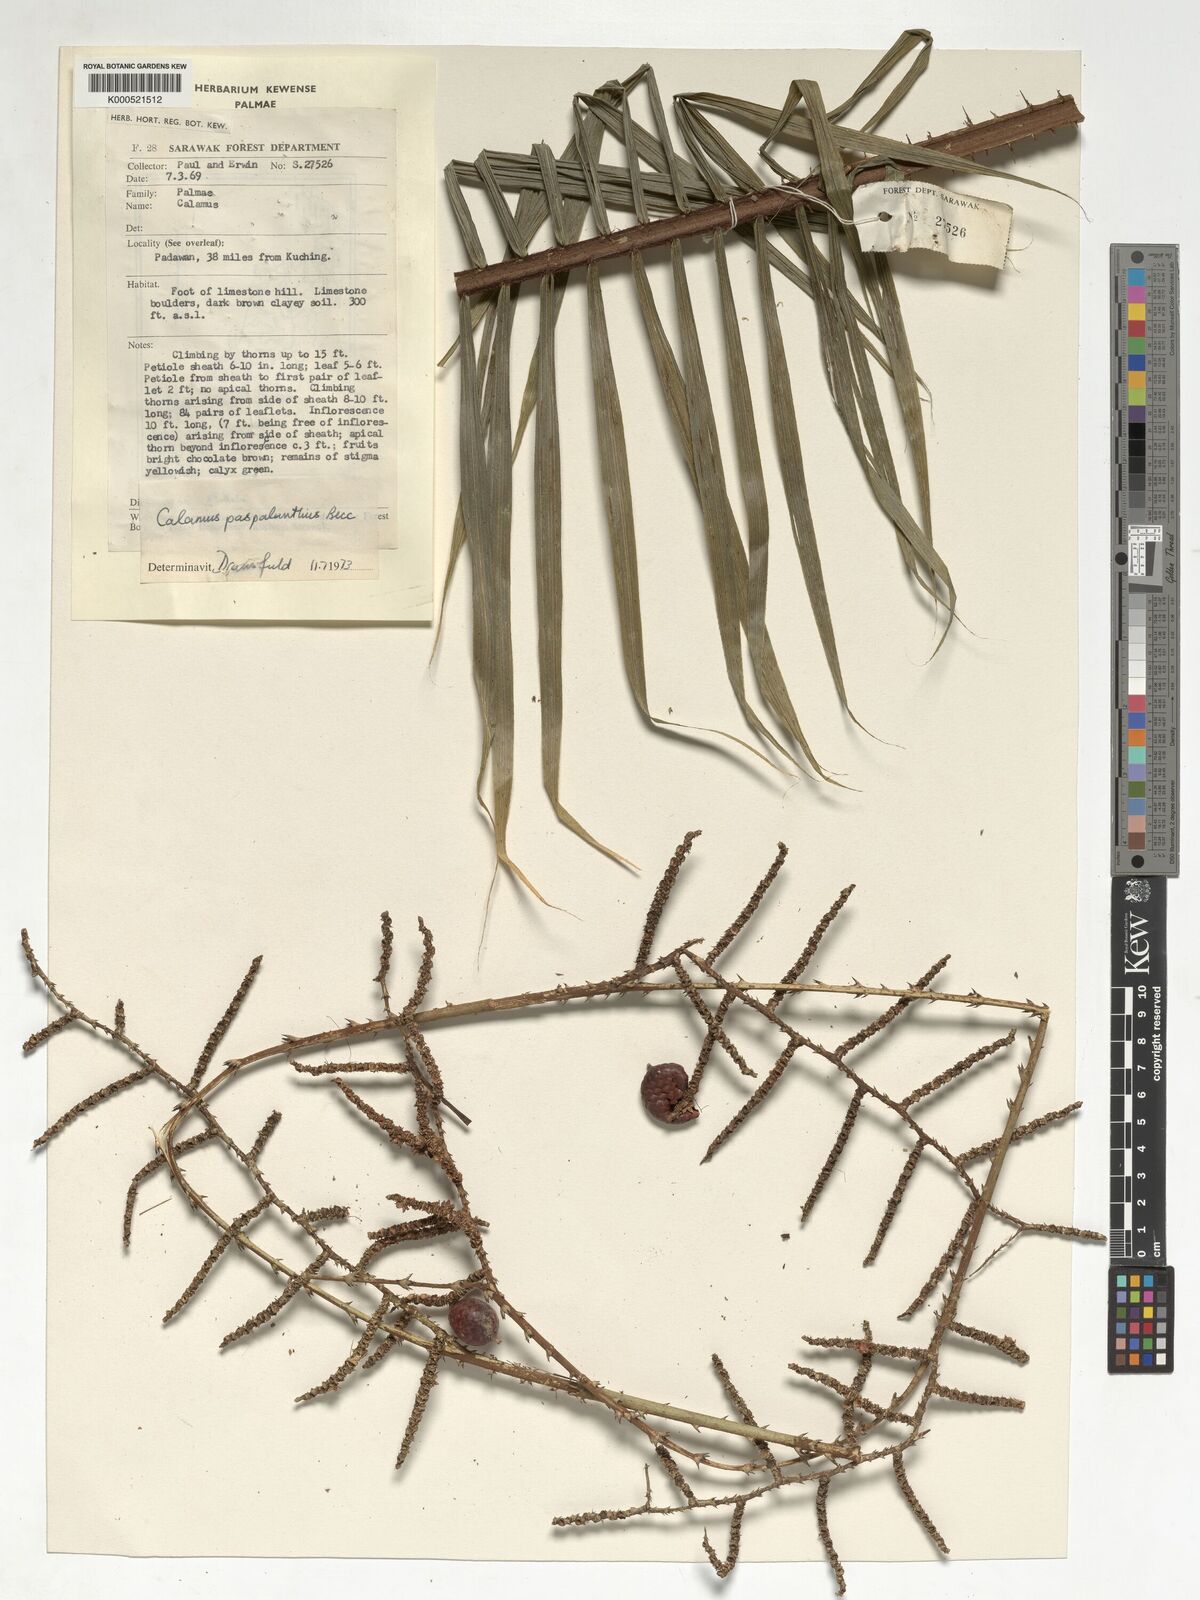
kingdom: Plantae
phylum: Tracheophyta
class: Liliopsida
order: Arecales
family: Arecaceae
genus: Calamus
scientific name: Calamus paspalanthus
